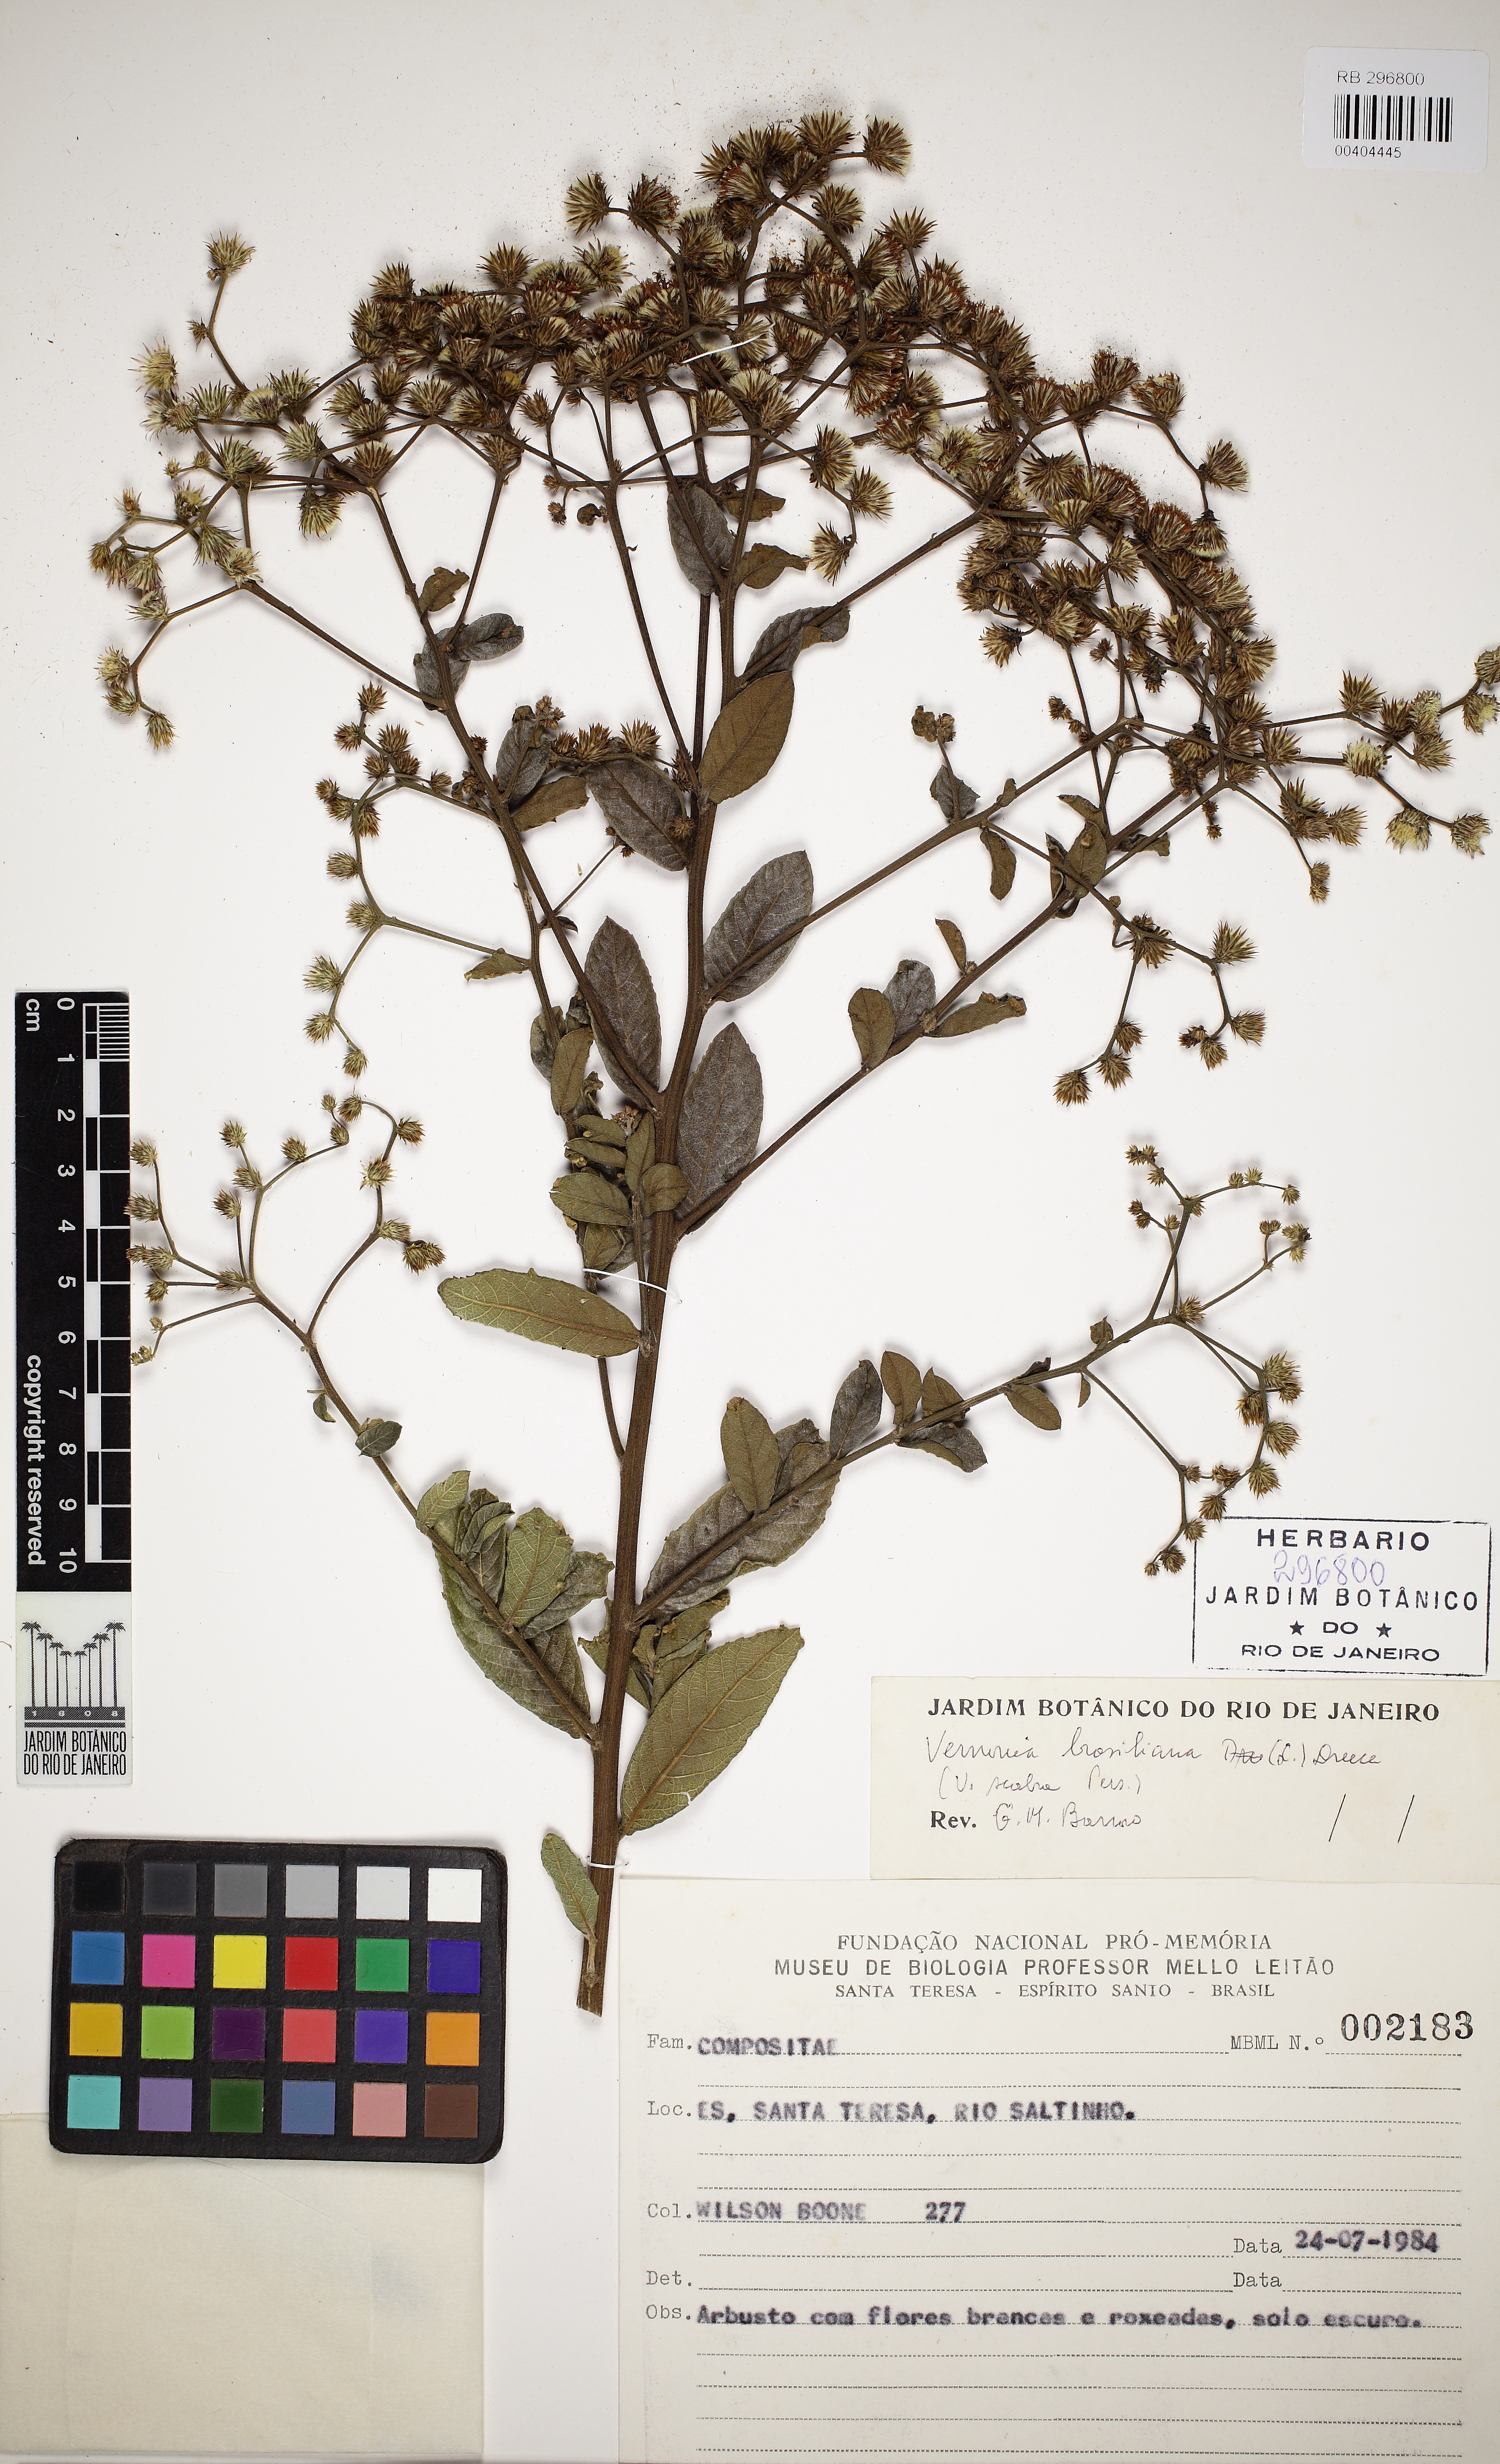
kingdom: Plantae
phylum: Tracheophyta
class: Magnoliopsida
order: Asterales
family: Asteraceae
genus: Vernonanthura
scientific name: Vernonanthura
